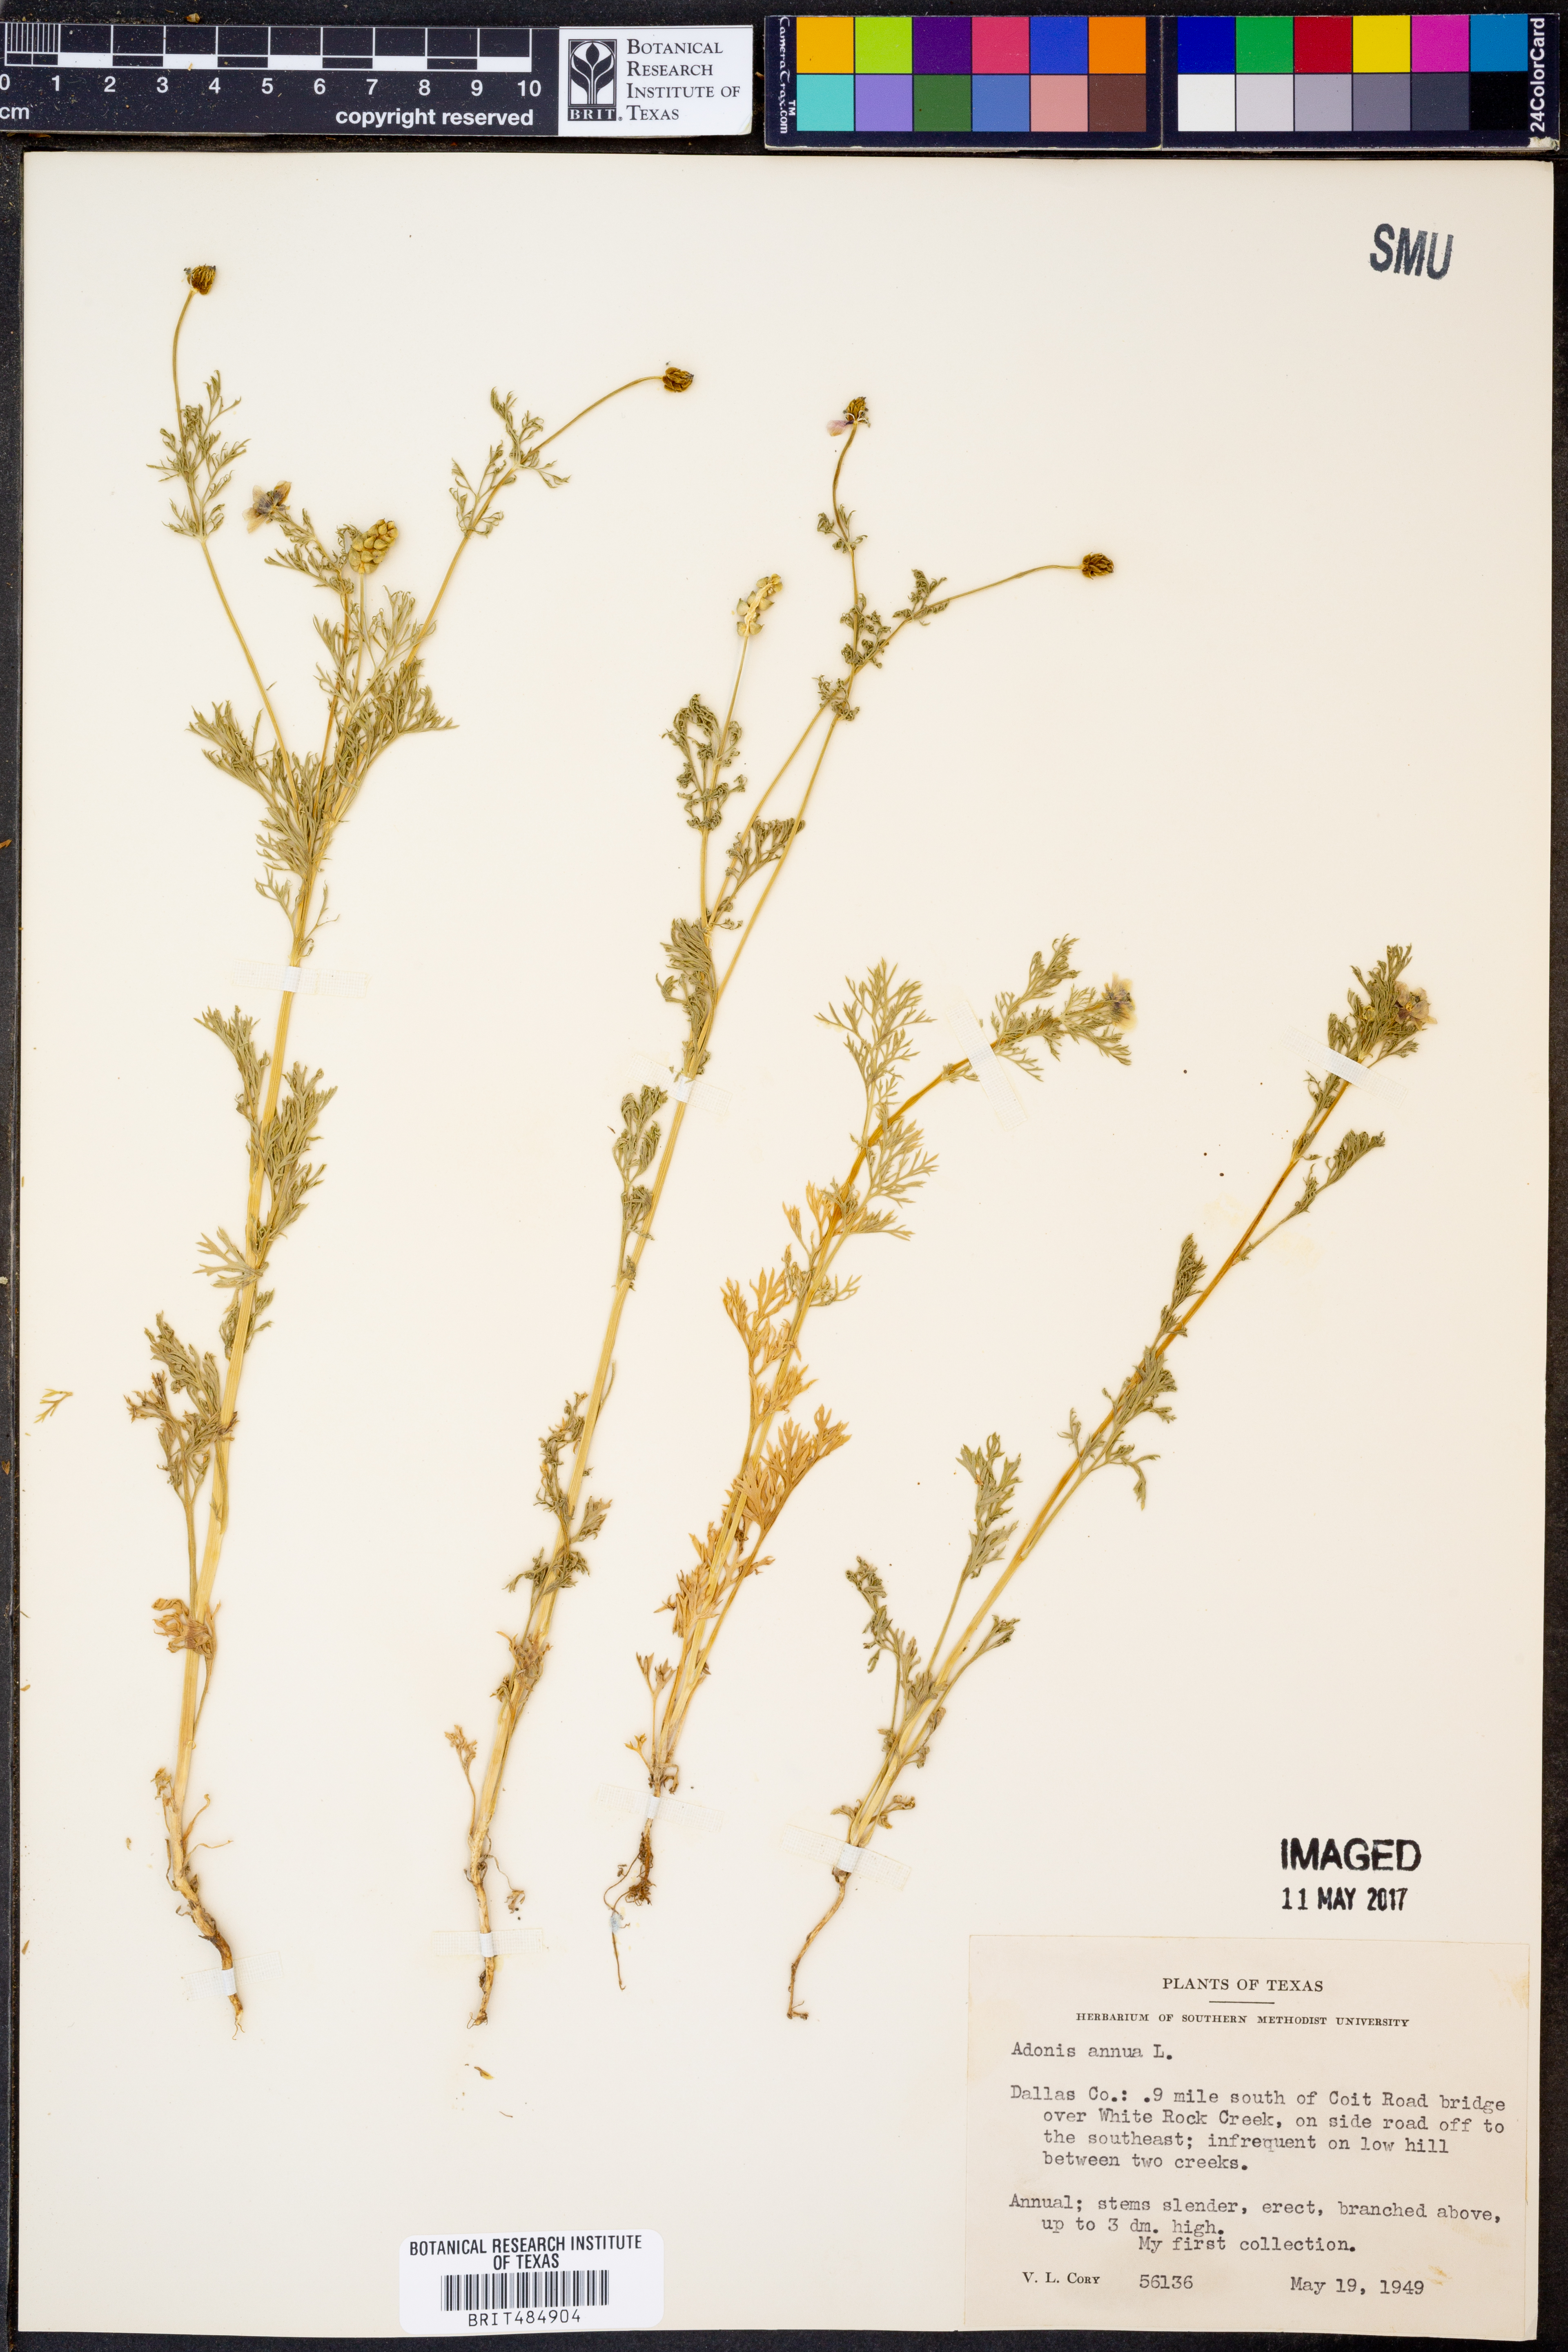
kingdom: Plantae
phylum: Tracheophyta
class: Magnoliopsida
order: Ranunculales
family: Ranunculaceae
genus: Adonis
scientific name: Adonis annua
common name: Pheasant's-eye
